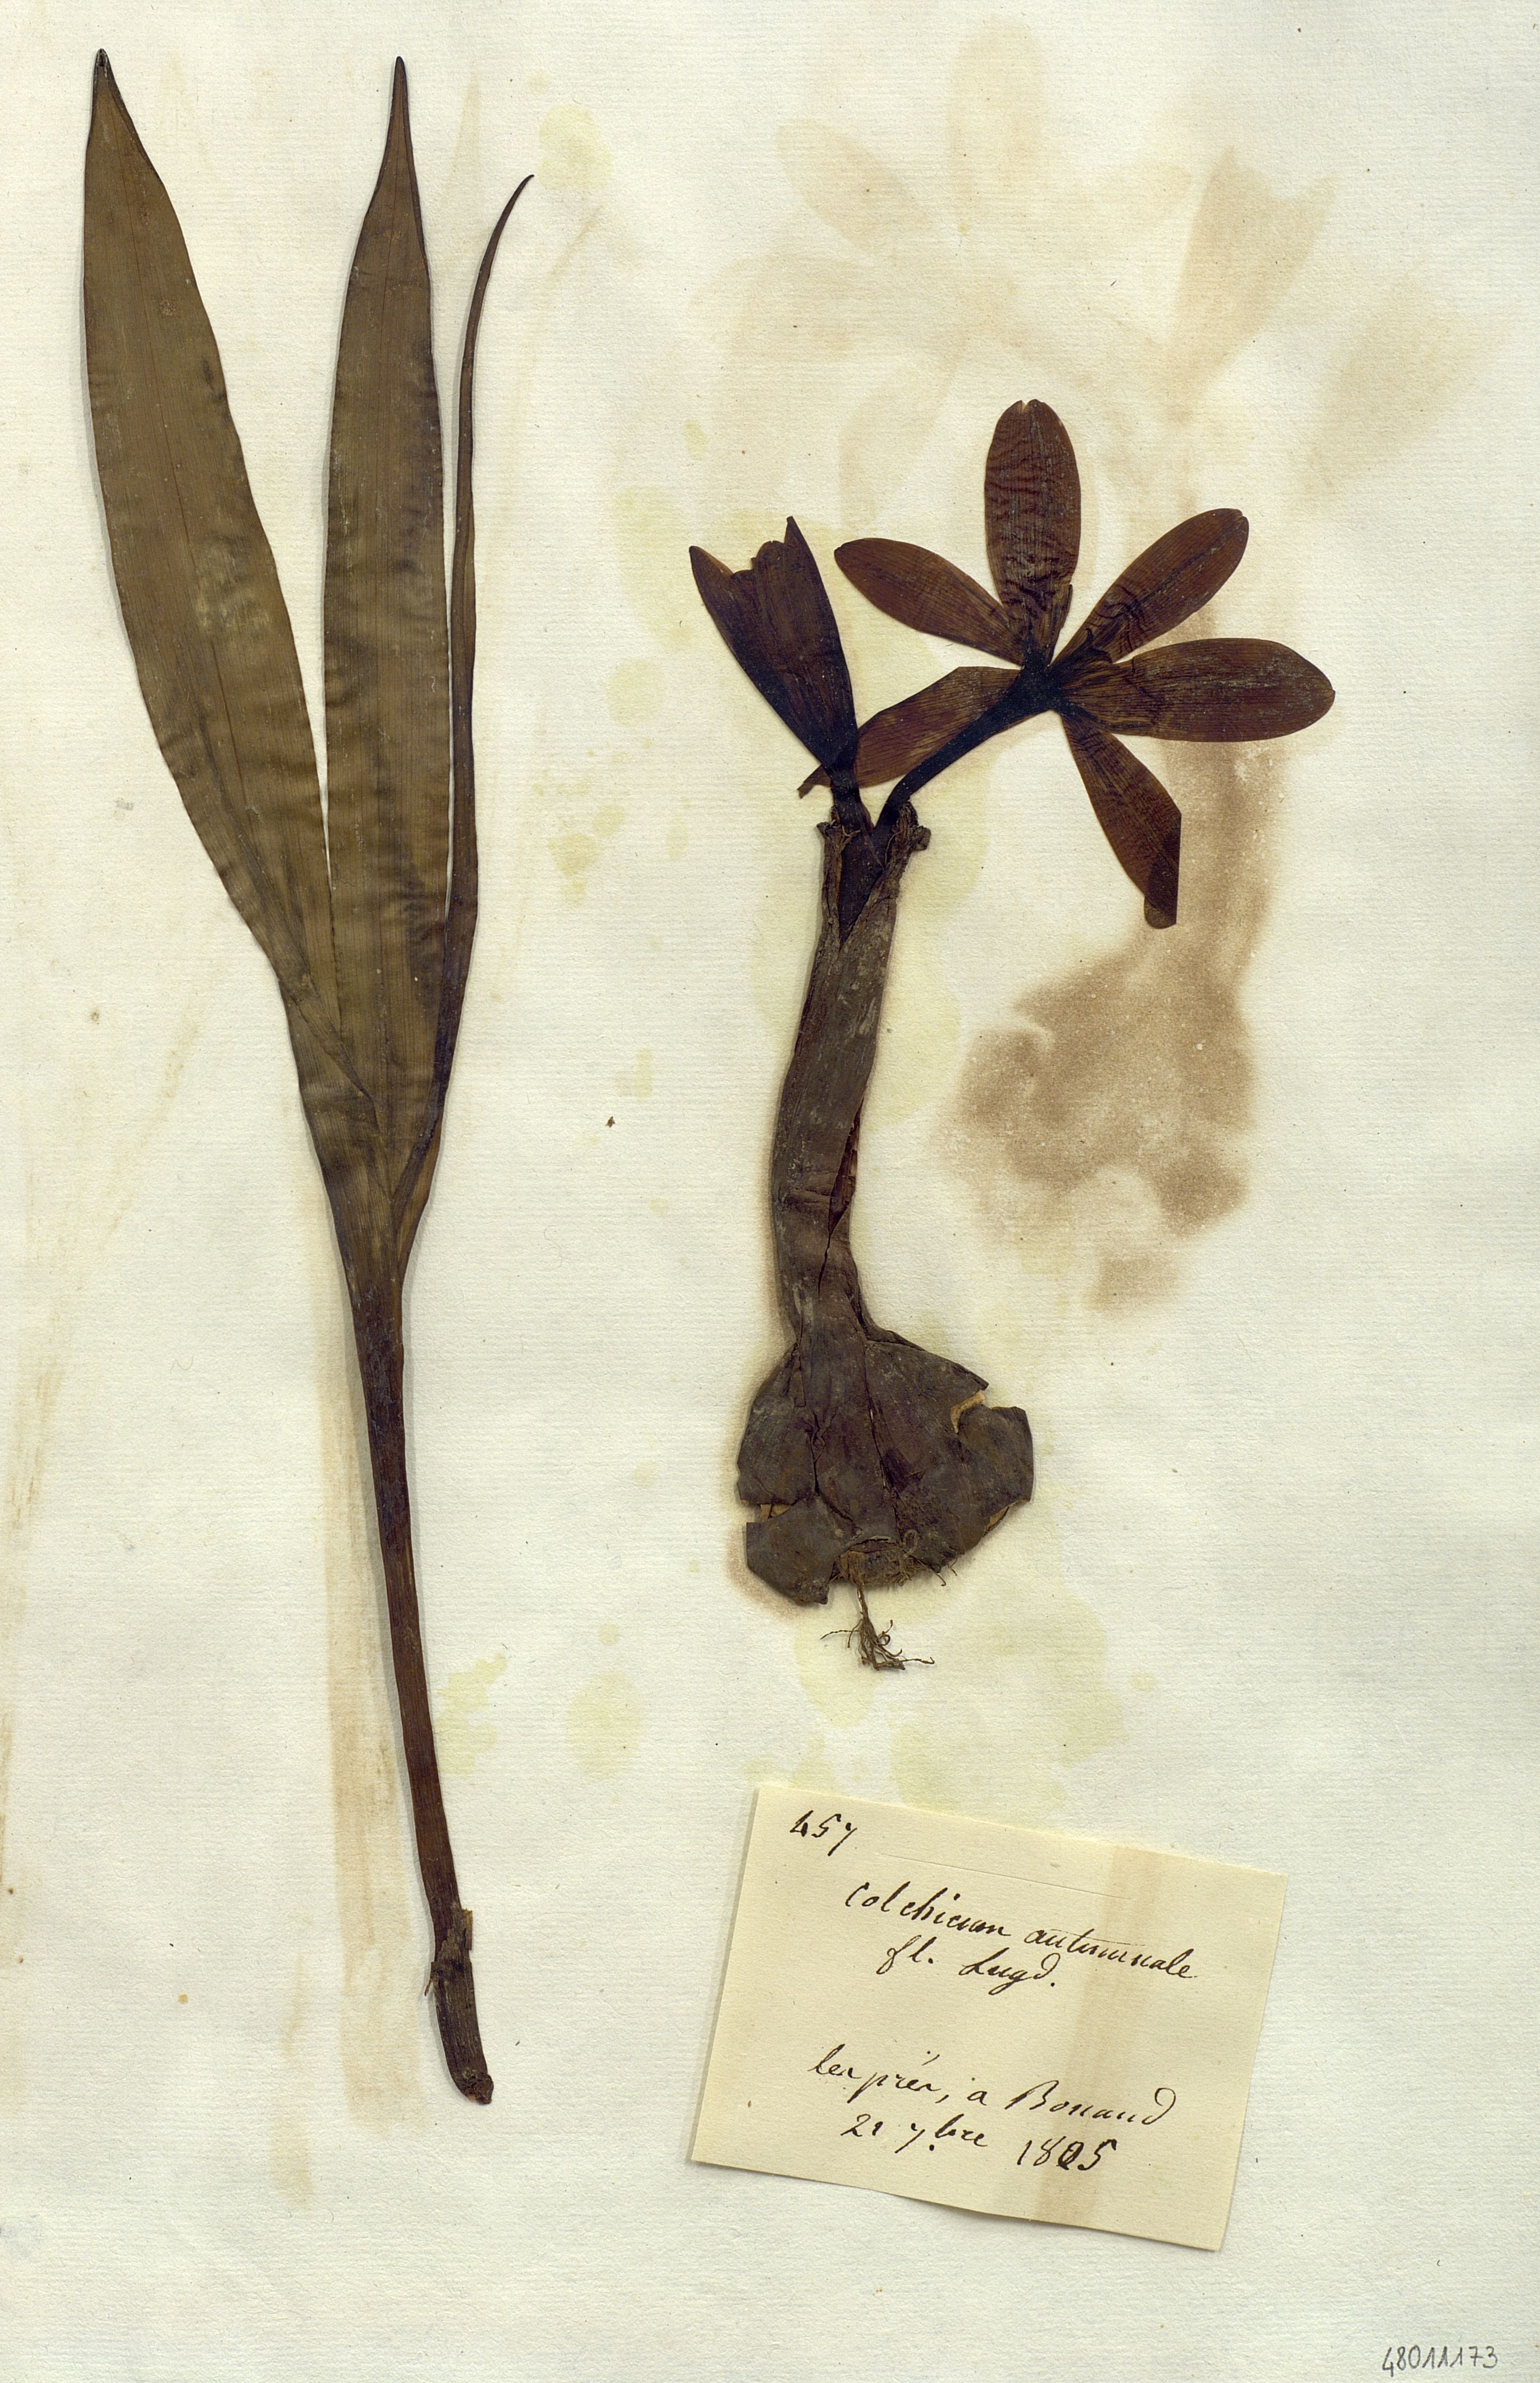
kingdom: Plantae
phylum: Tracheophyta
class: Liliopsida
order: Liliales
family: Colchicaceae
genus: Colchicum
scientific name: Colchicum autumnale
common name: Autumn crocus
